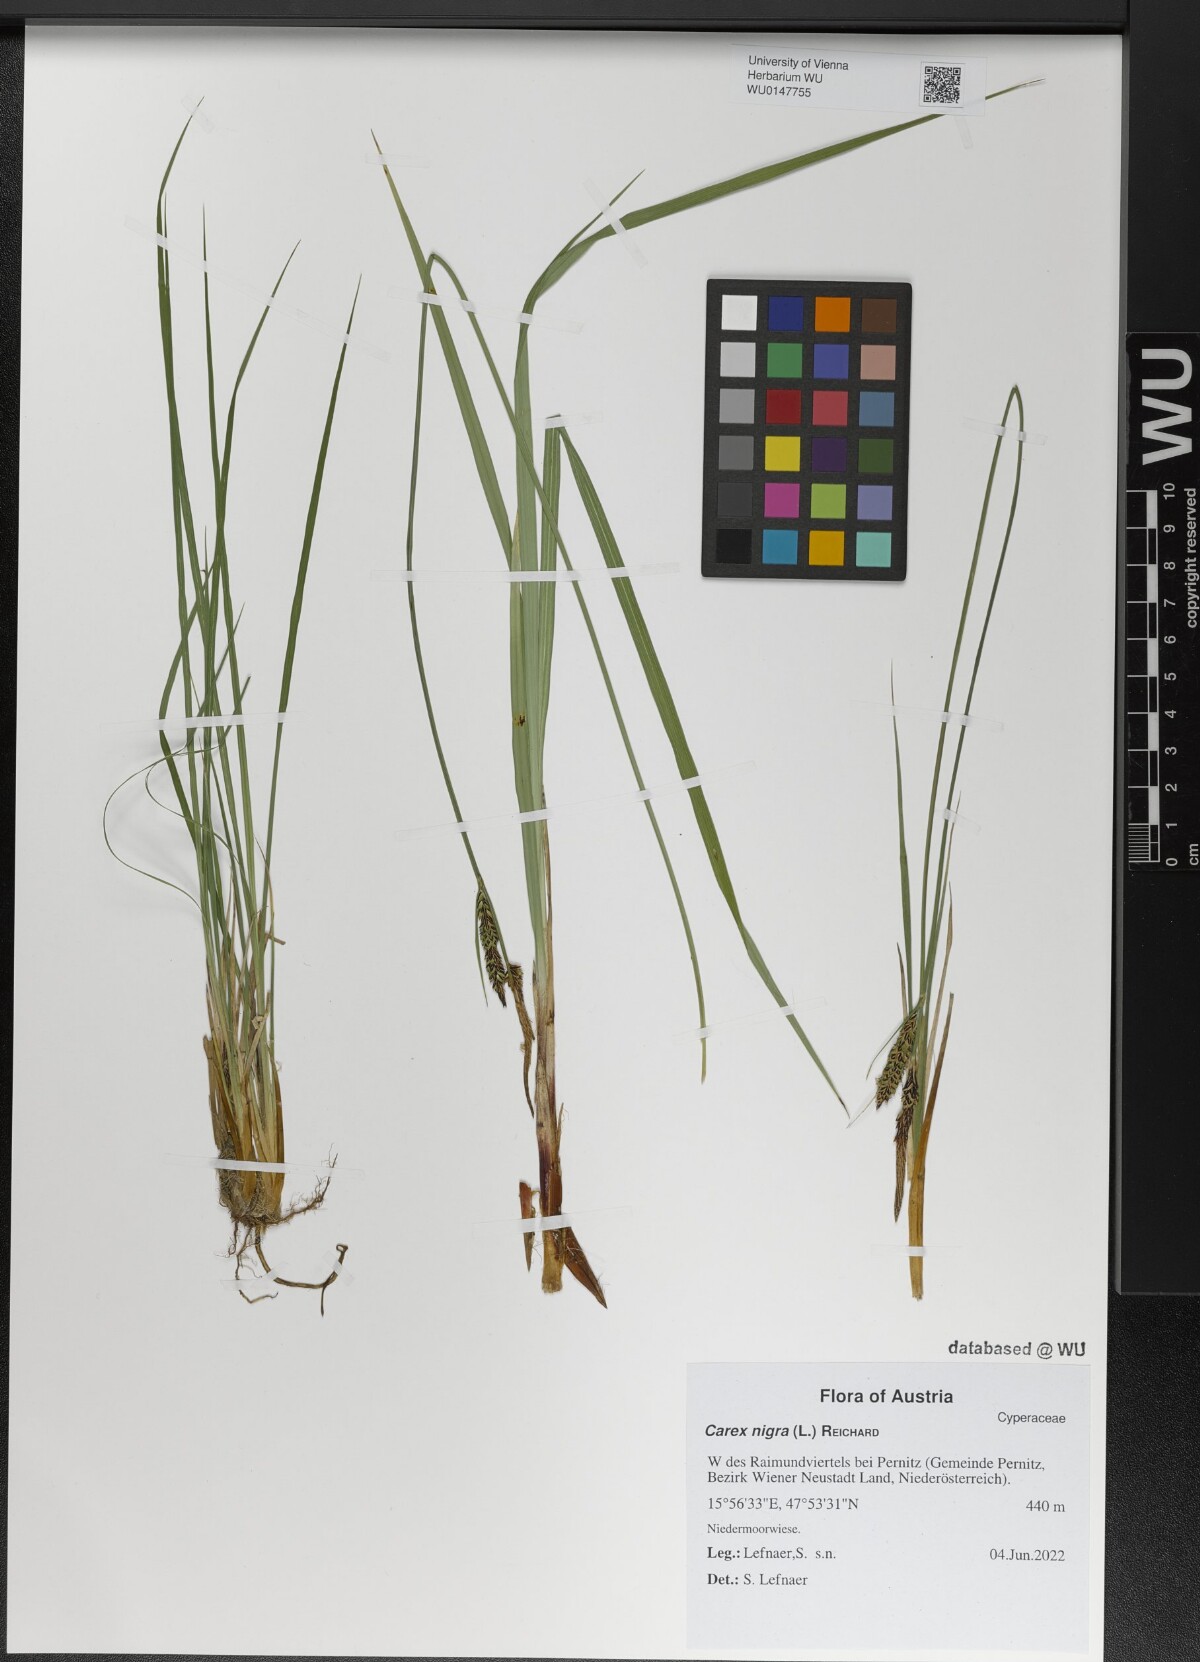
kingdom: Plantae
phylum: Tracheophyta
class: Liliopsida
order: Poales
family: Cyperaceae
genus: Carex
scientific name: Carex nigra
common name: Common sedge
